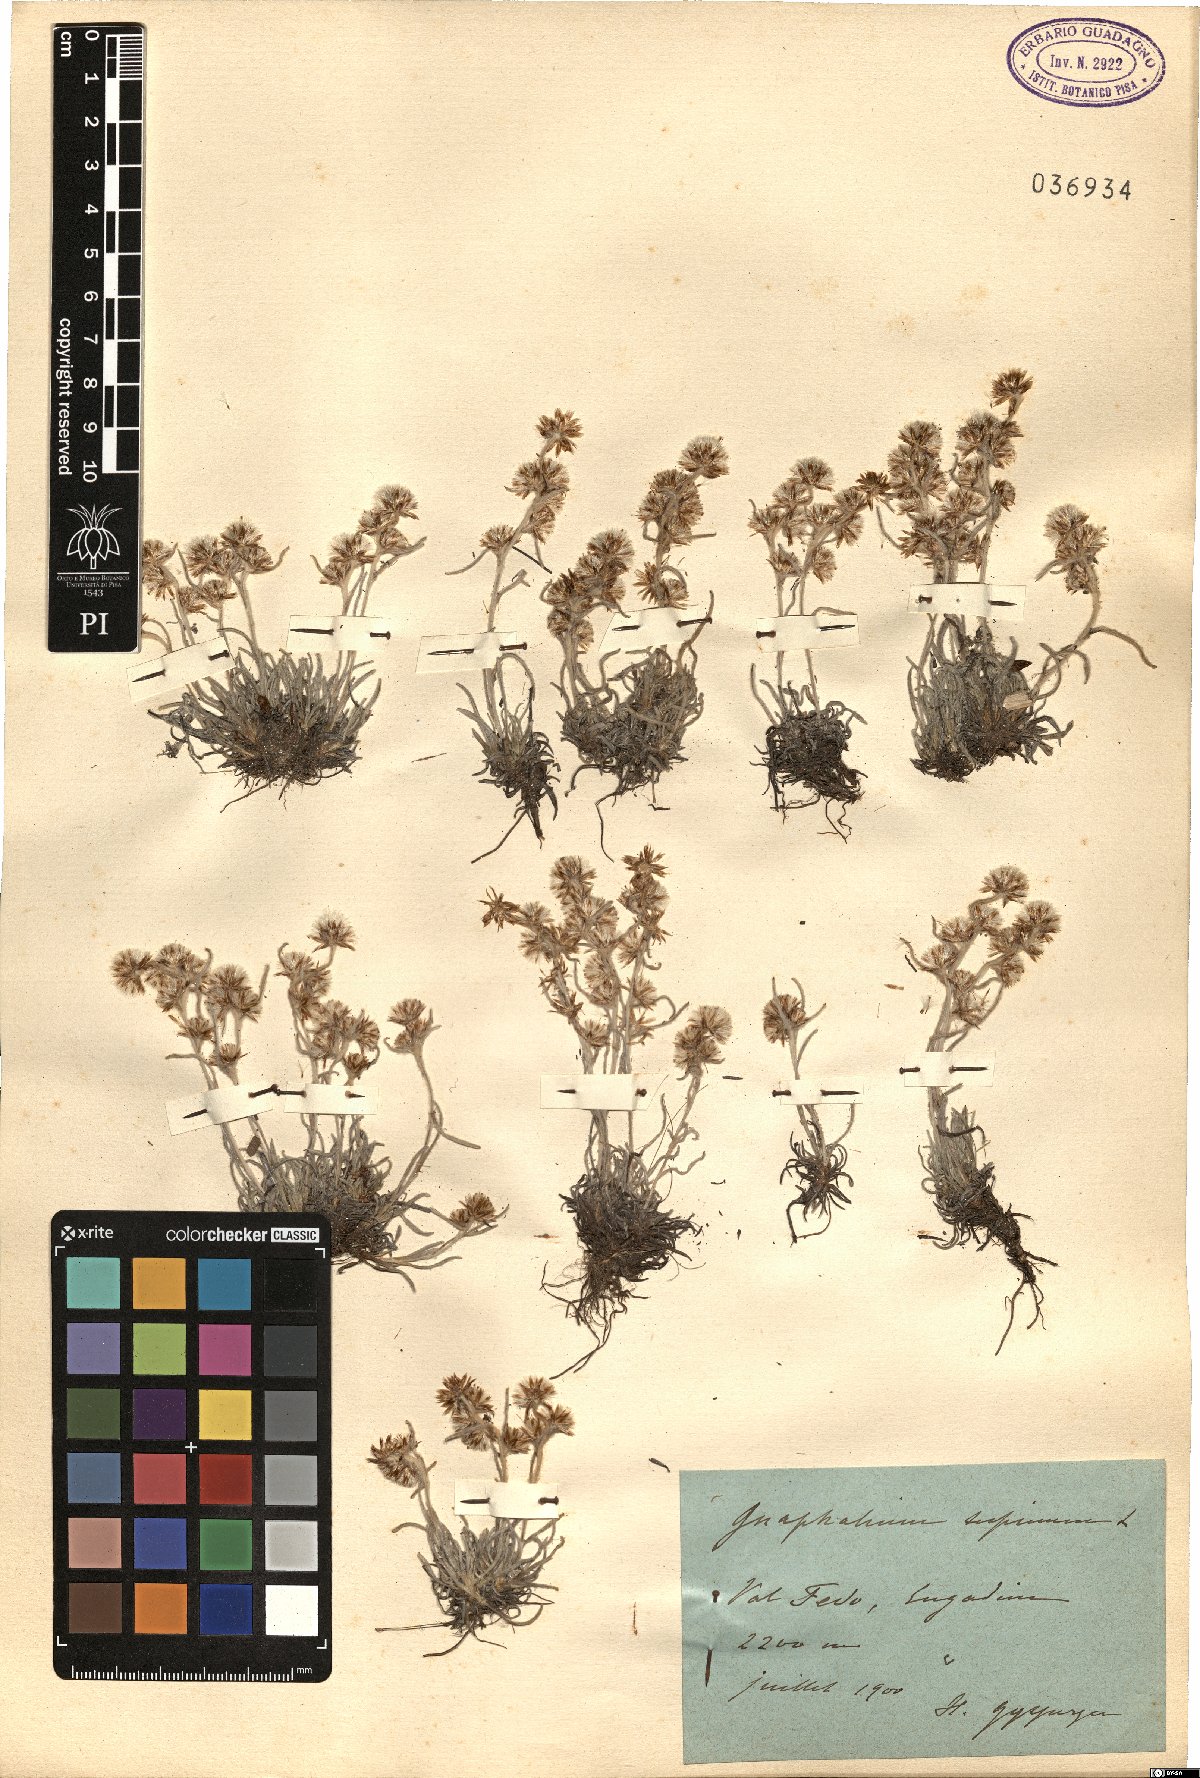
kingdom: Plantae
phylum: Tracheophyta
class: Magnoliopsida
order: Asterales
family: Asteraceae
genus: Omalotheca
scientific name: Omalotheca supina
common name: Alpine arctic-cudweed
